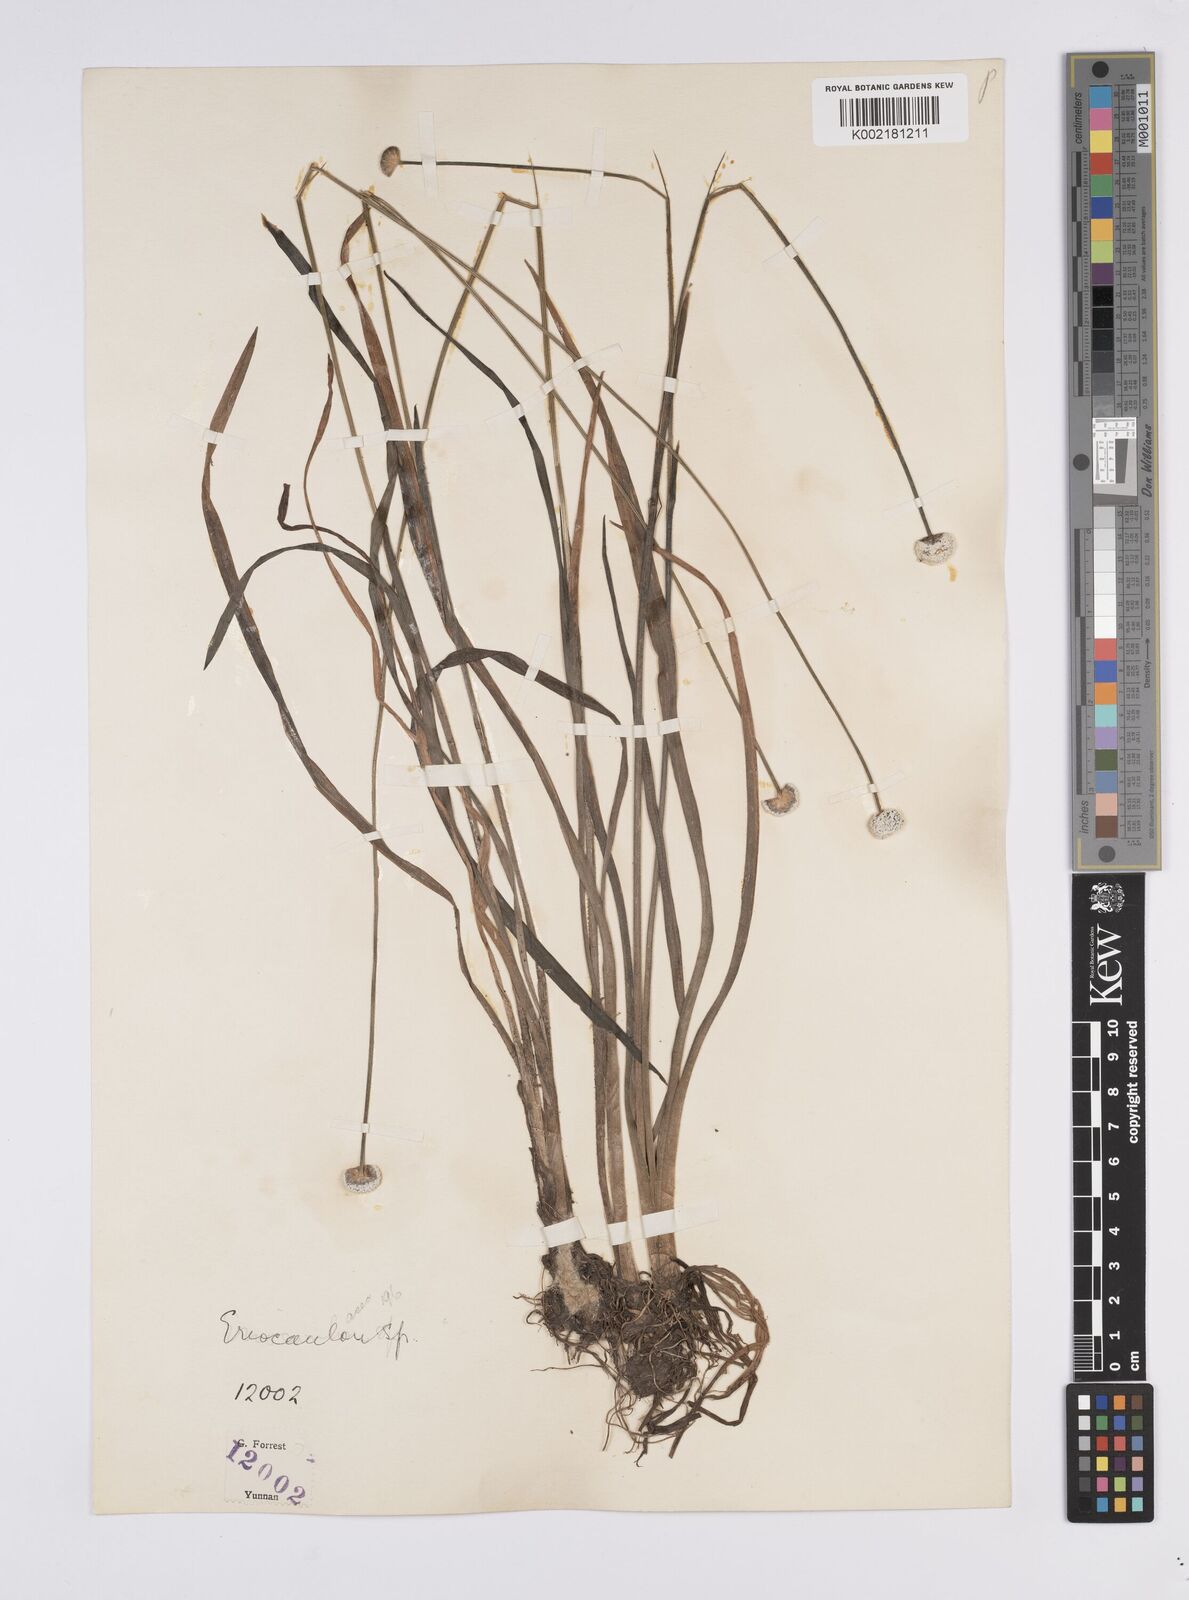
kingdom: Plantae
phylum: Tracheophyta
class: Liliopsida
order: Poales
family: Eriocaulaceae
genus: Eriocaulon
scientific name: Eriocaulon
